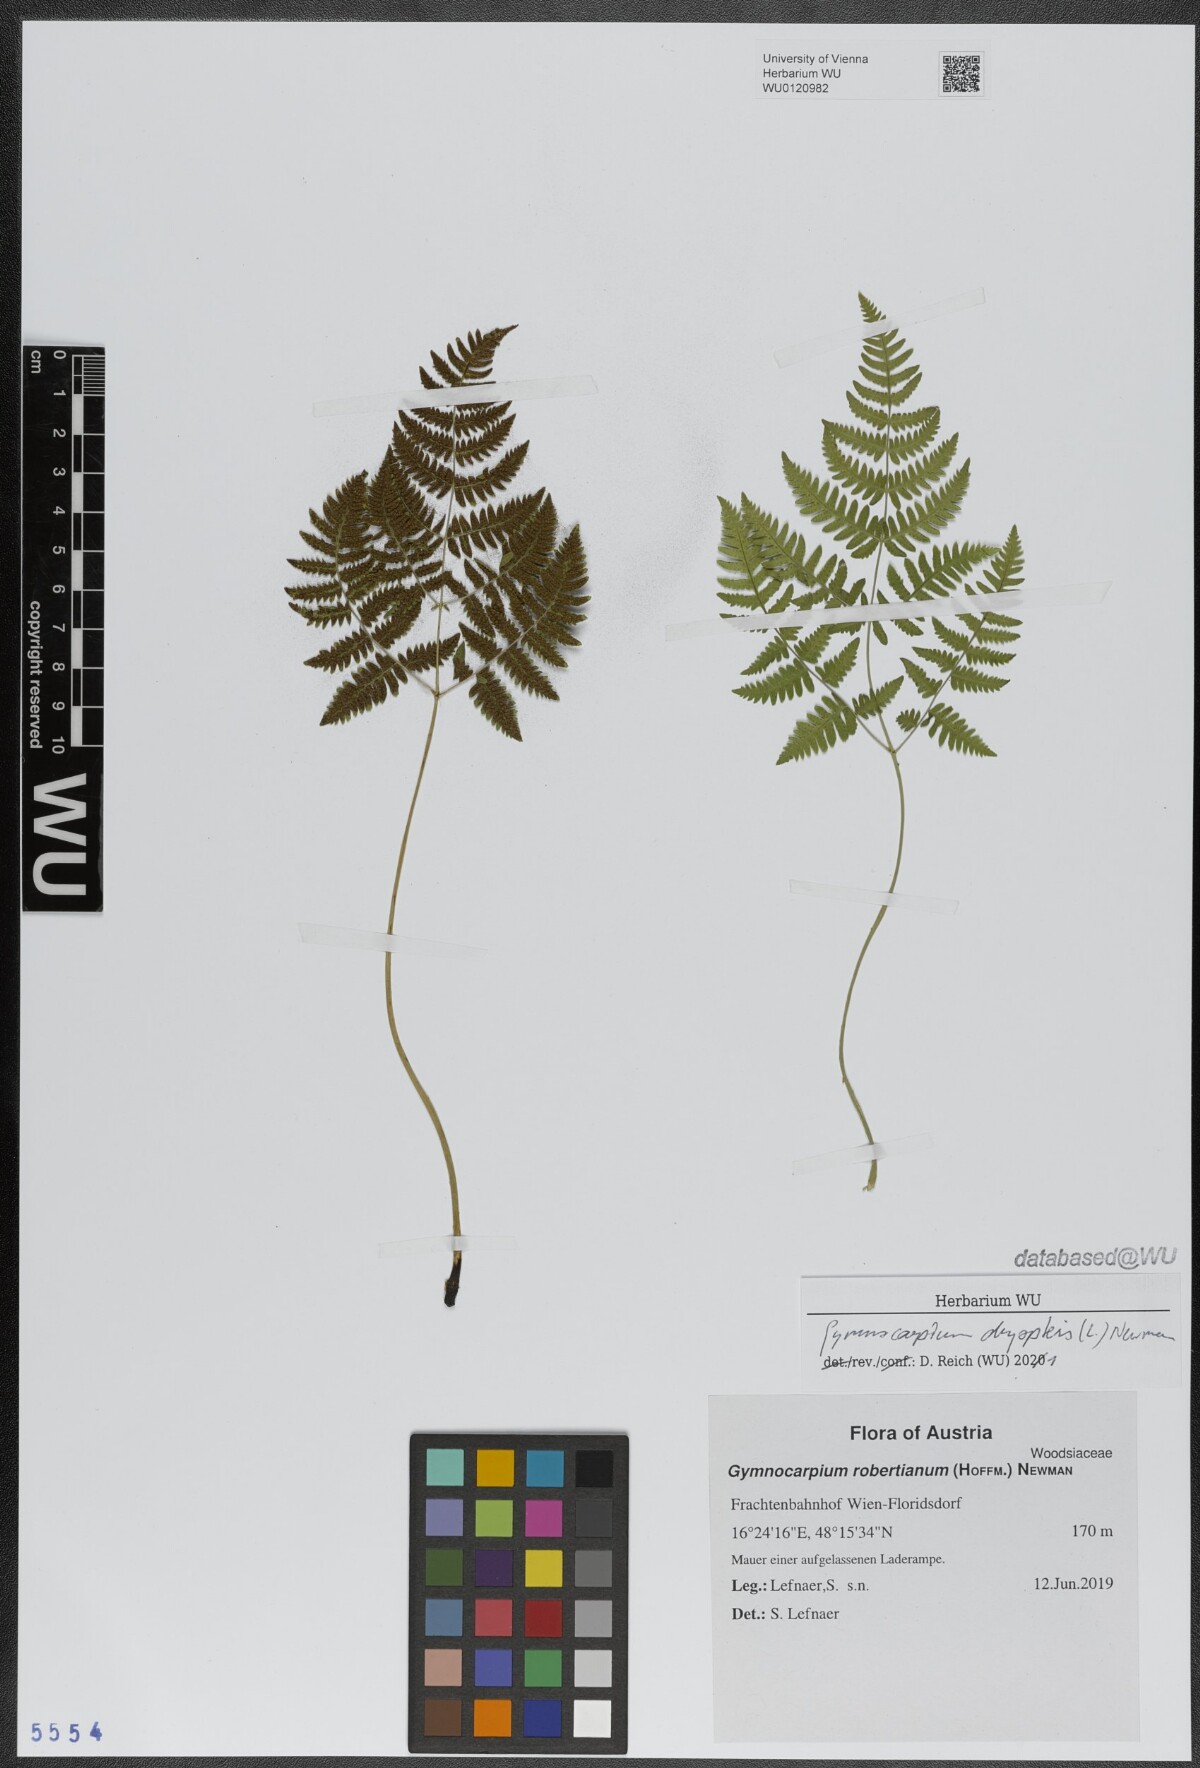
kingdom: Plantae
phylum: Tracheophyta
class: Polypodiopsida
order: Polypodiales
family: Cystopteridaceae
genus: Gymnocarpium
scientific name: Gymnocarpium dryopteris
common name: Oak fern
